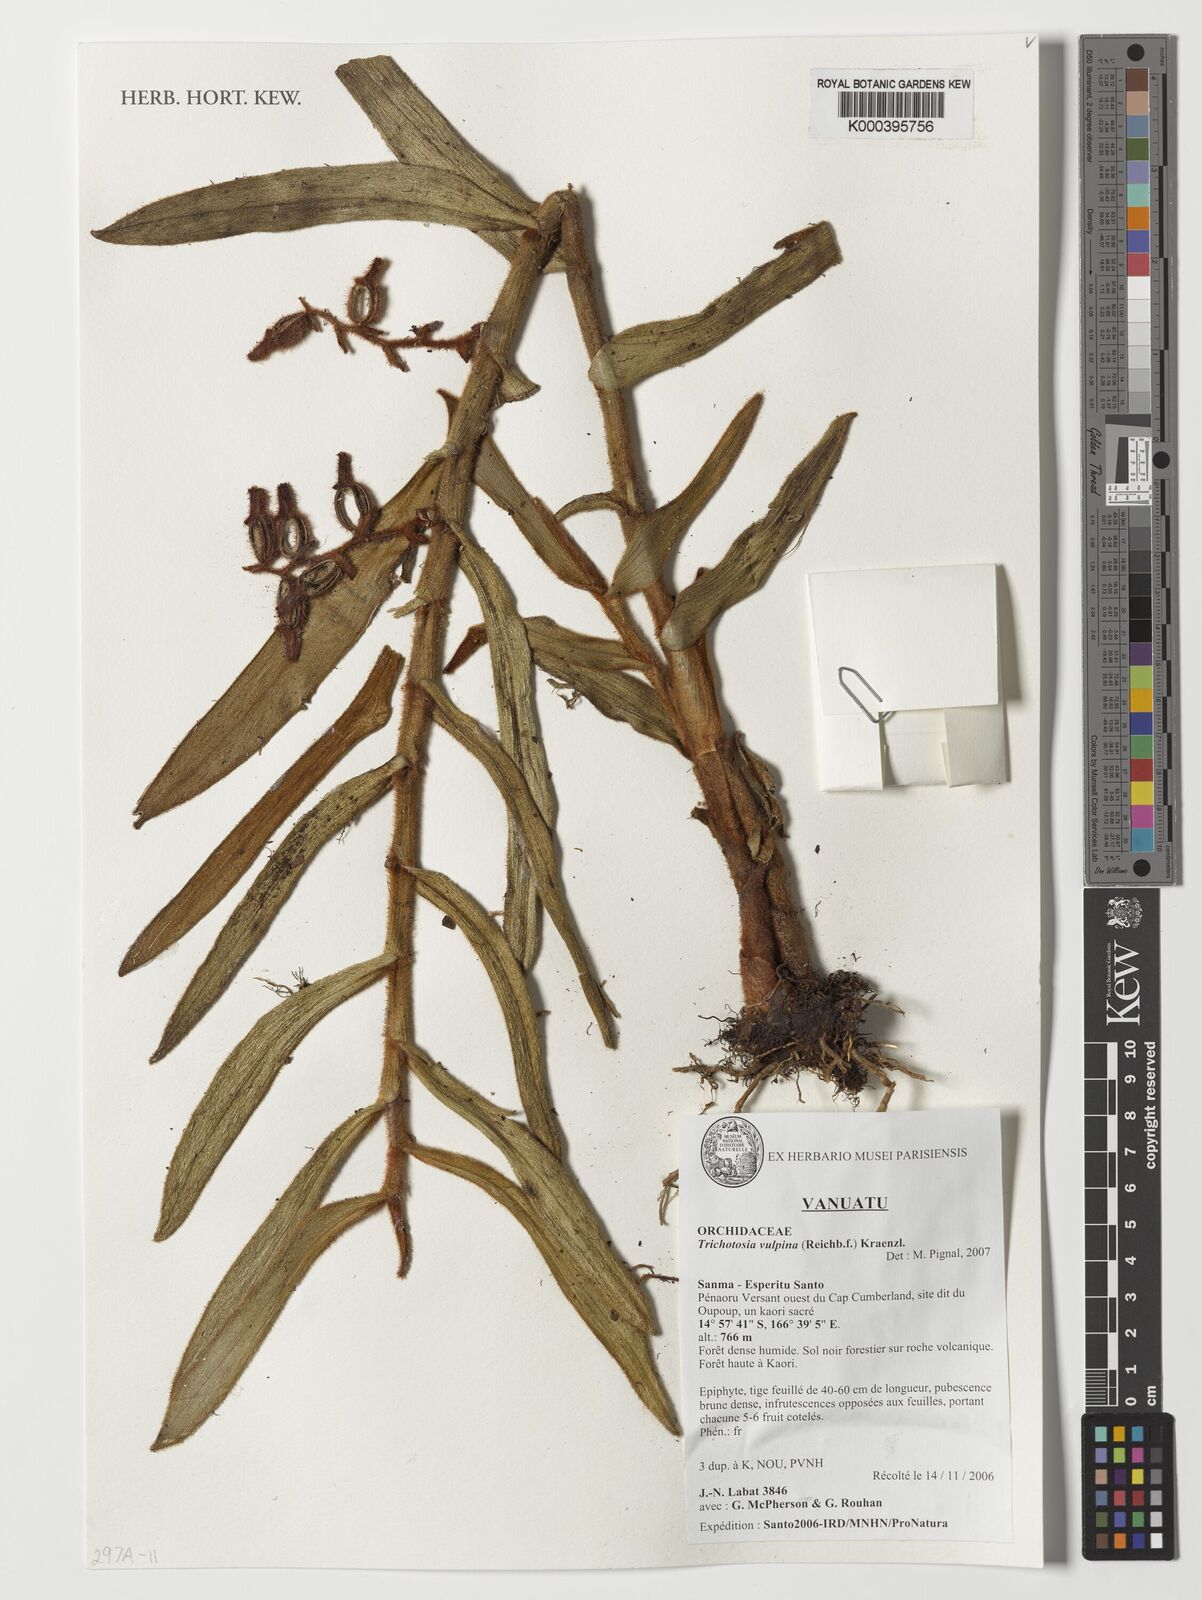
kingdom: Plantae
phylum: Tracheophyta
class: Liliopsida
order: Asparagales
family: Orchidaceae
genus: Trichotosia
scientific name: Trichotosia vulpina
